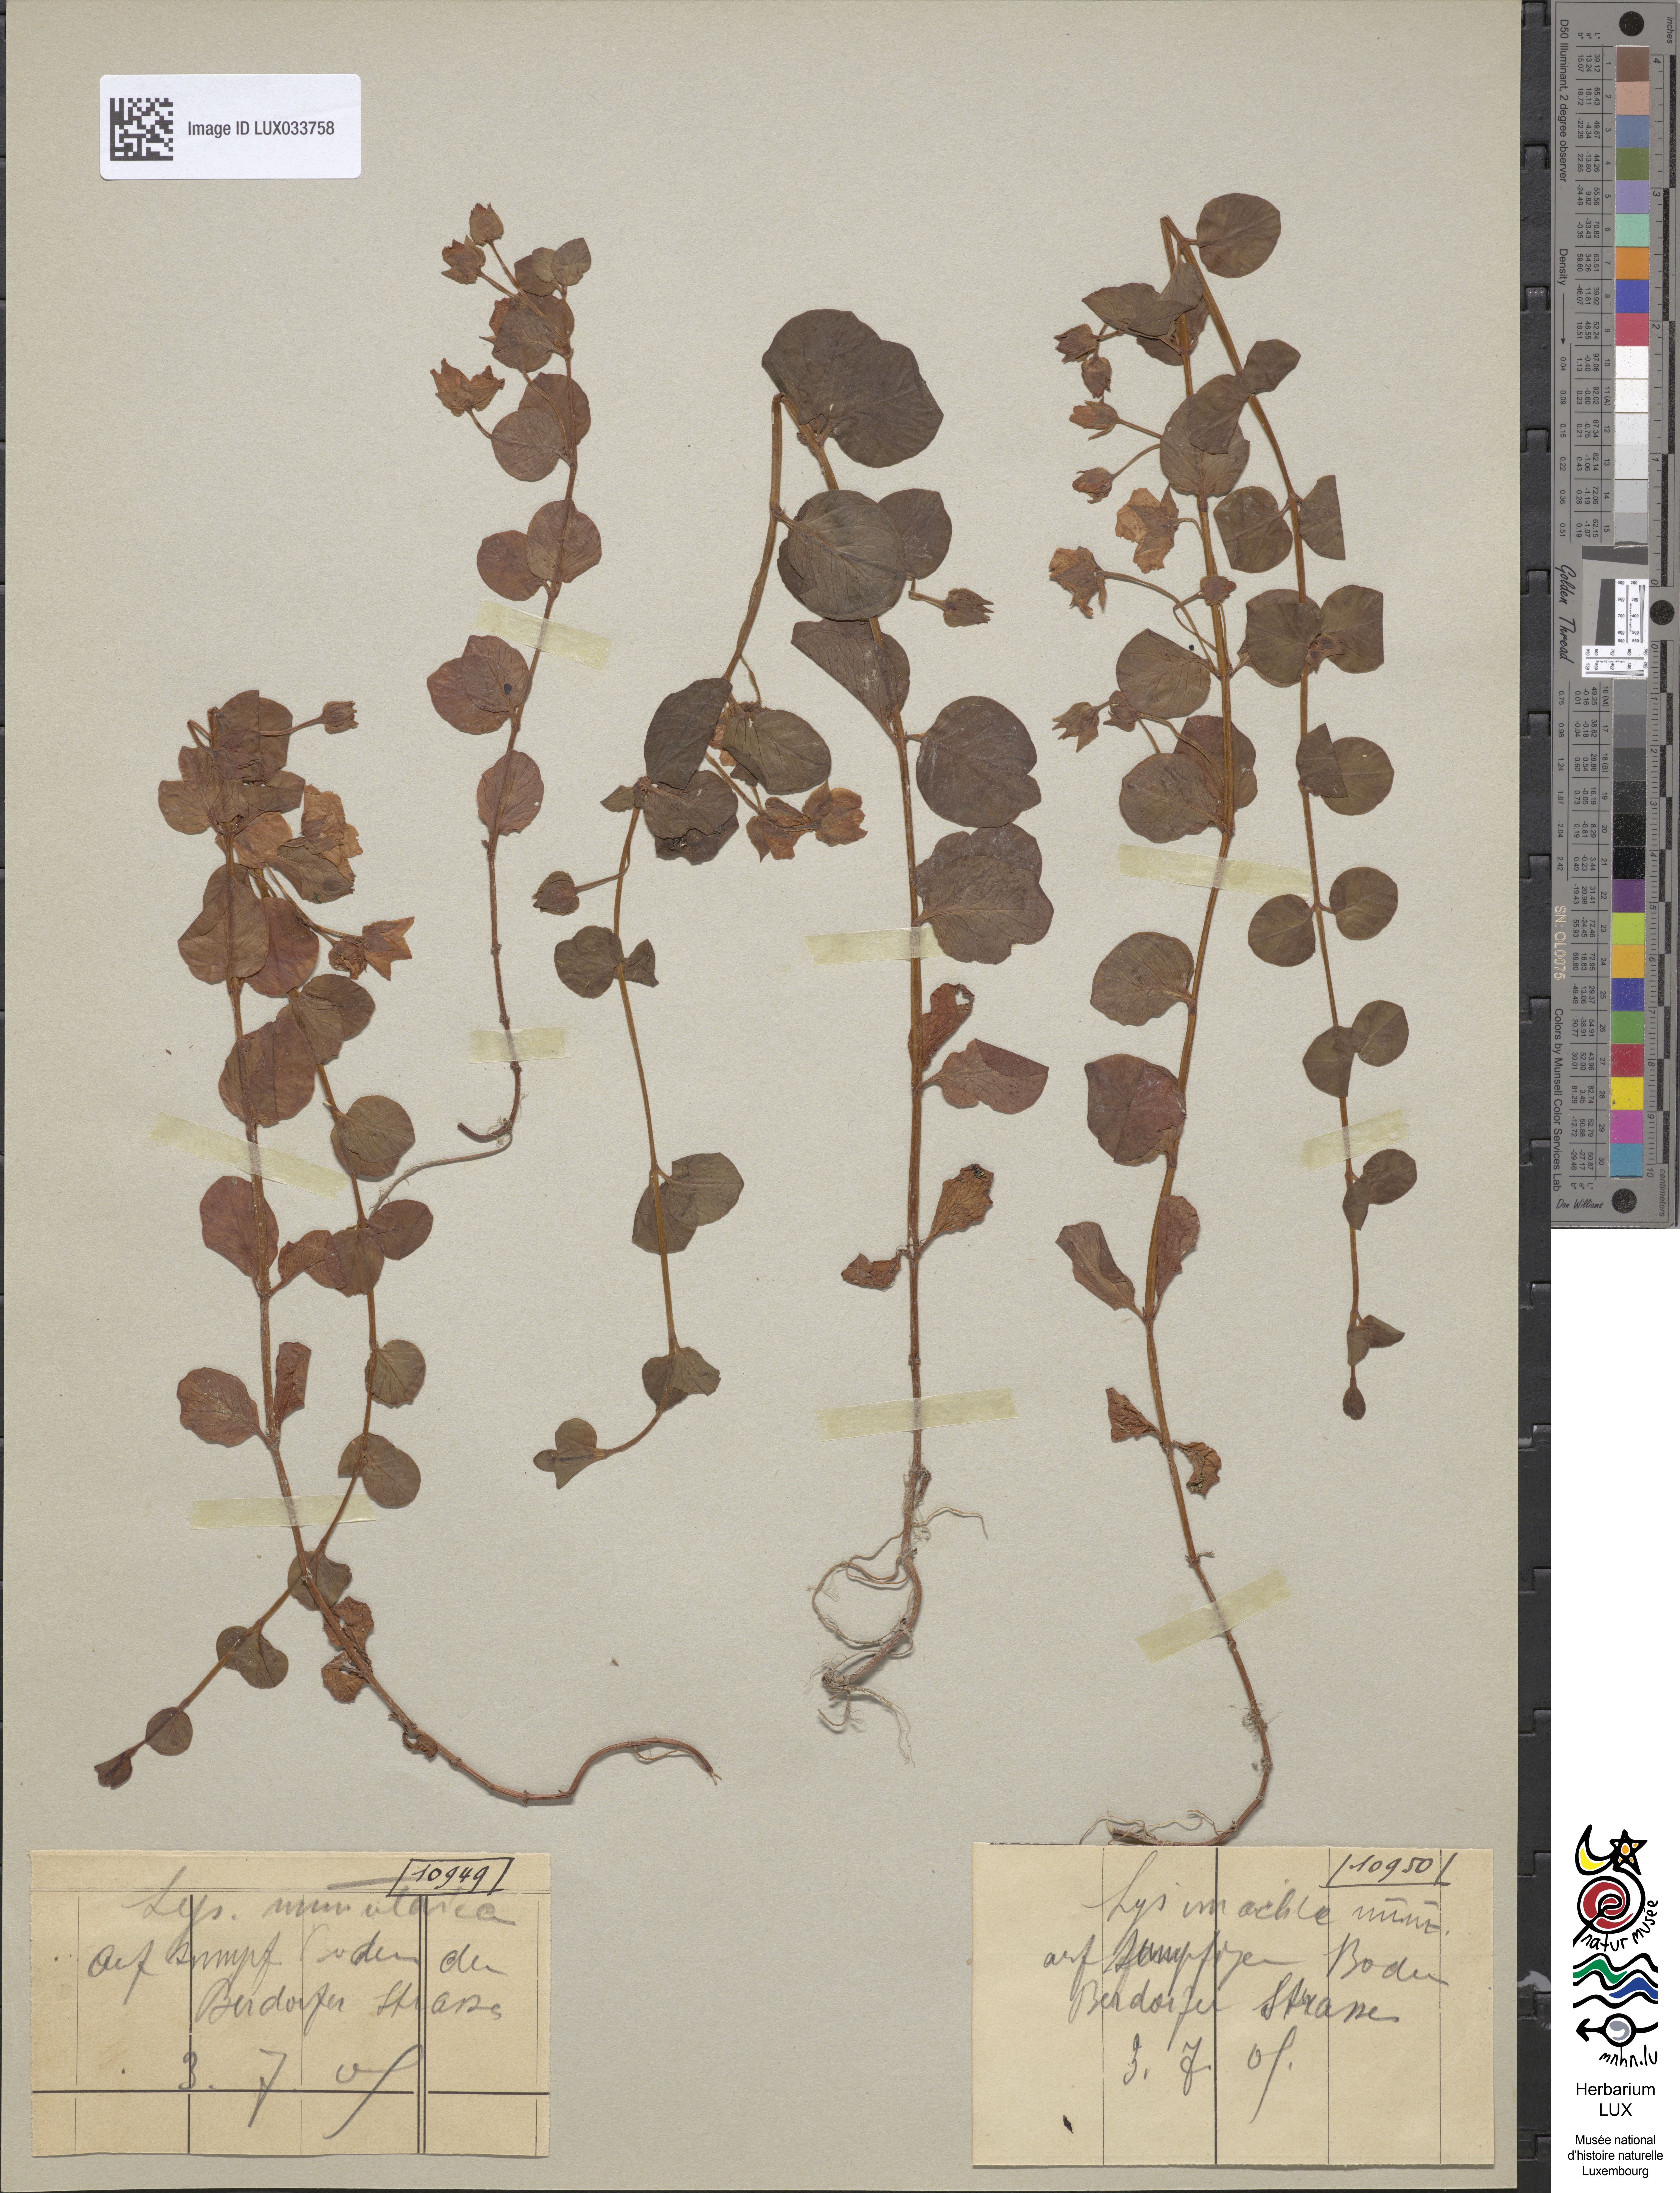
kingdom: Plantae
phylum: Tracheophyta
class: Magnoliopsida
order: Ericales
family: Primulaceae
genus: Lysimachia
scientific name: Lysimachia nummularia
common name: Moneywort
